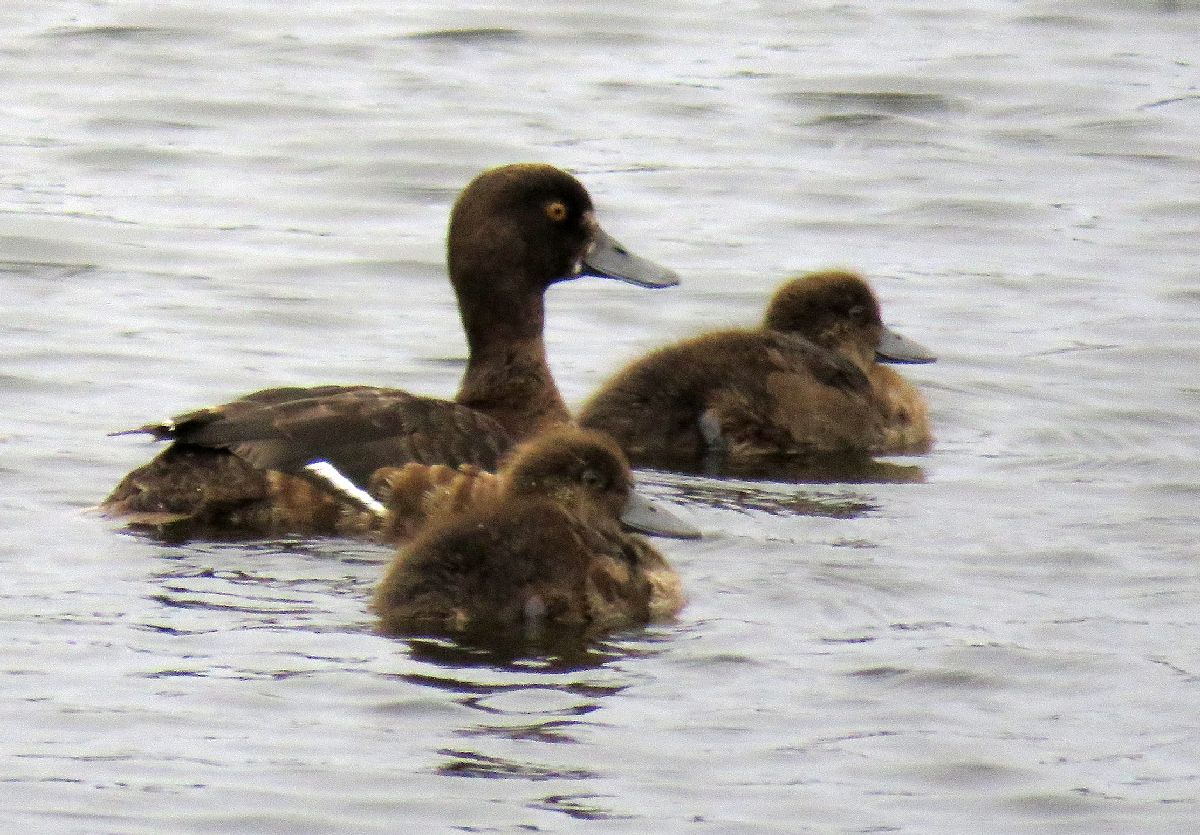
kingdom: Animalia
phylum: Chordata
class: Aves
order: Anseriformes
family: Anatidae
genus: Aythya
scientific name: Aythya fuligula
